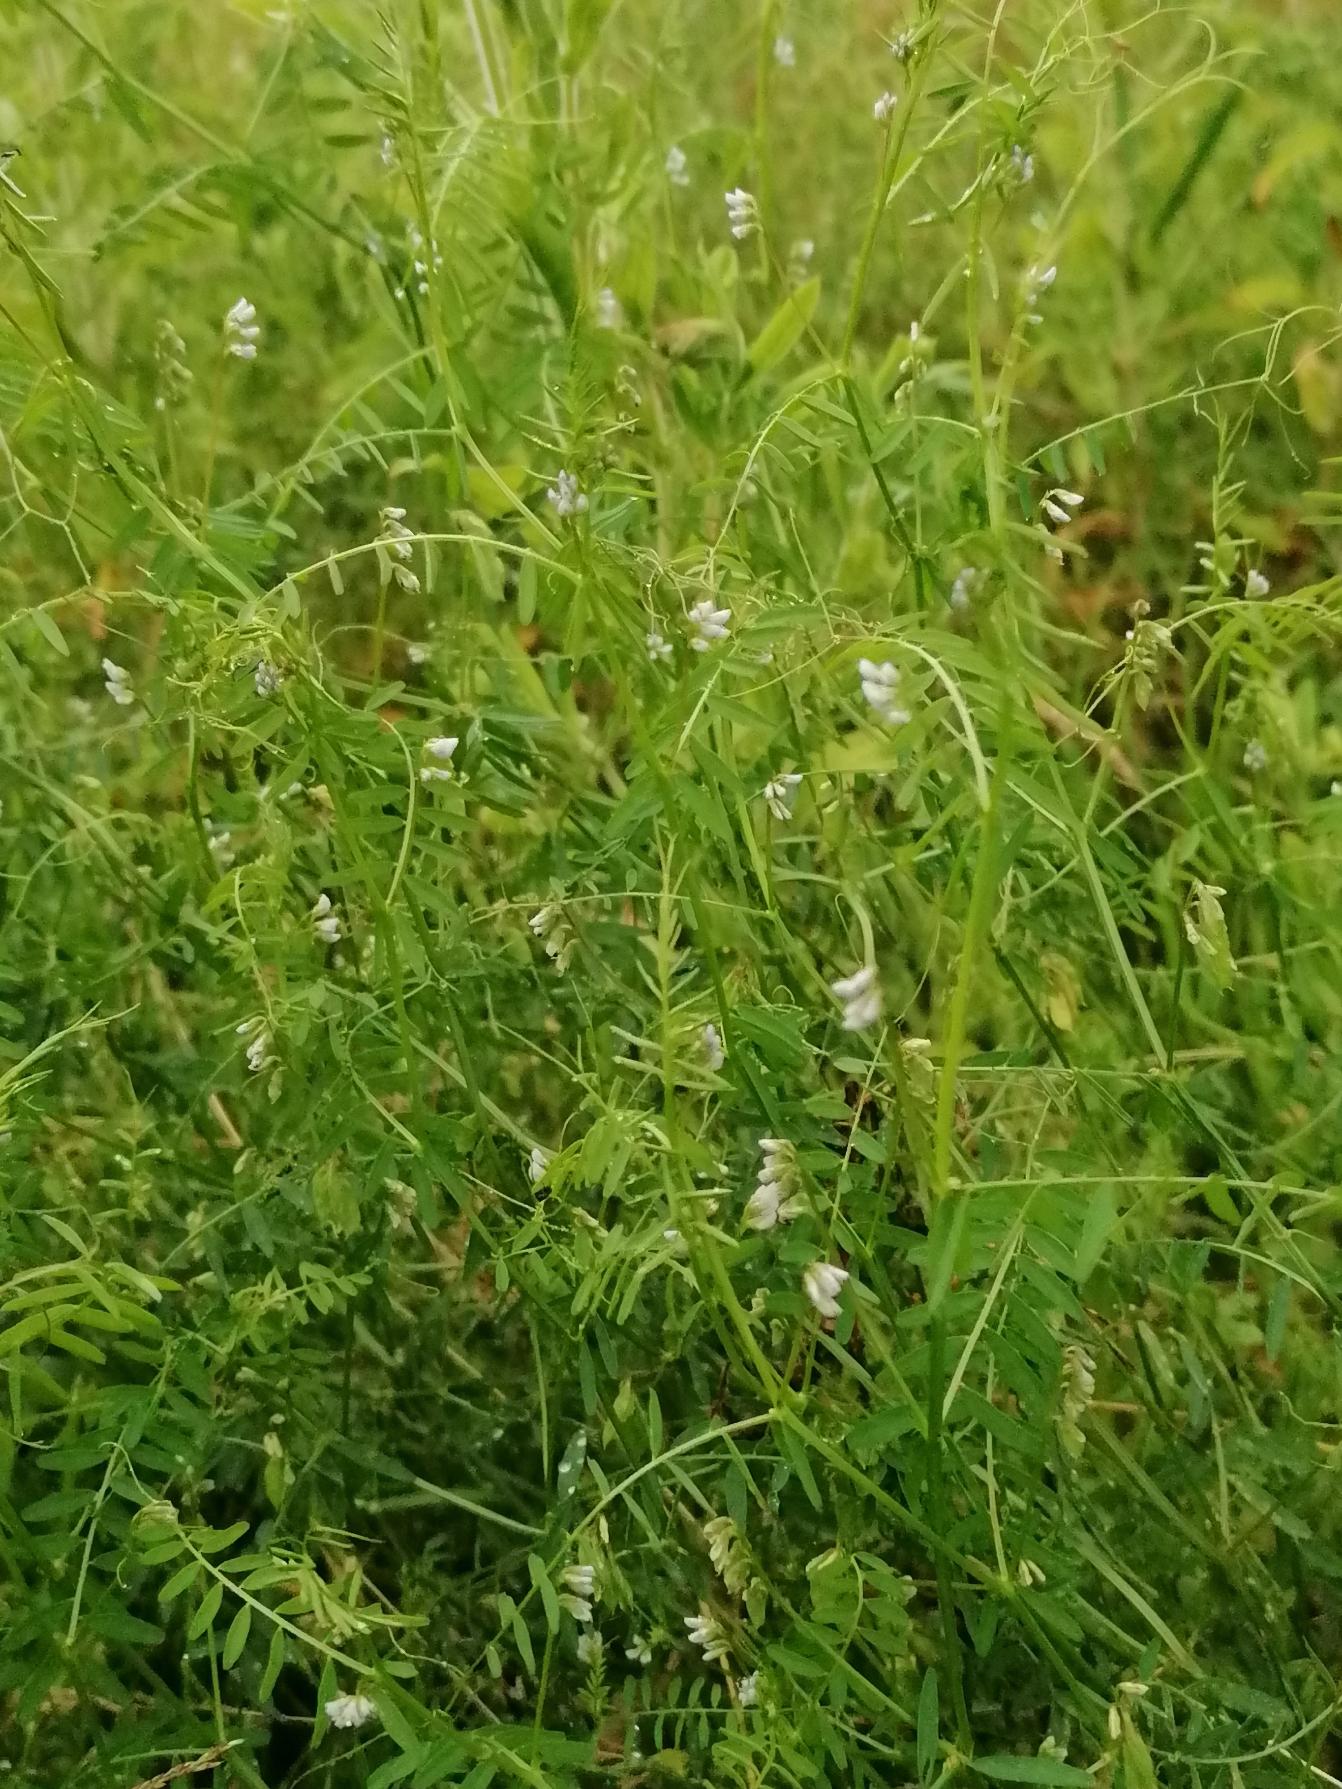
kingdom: Plantae
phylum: Tracheophyta
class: Magnoliopsida
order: Fabales
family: Fabaceae
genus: Vicia
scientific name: Vicia hirsuta
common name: Tofrøet vikke
